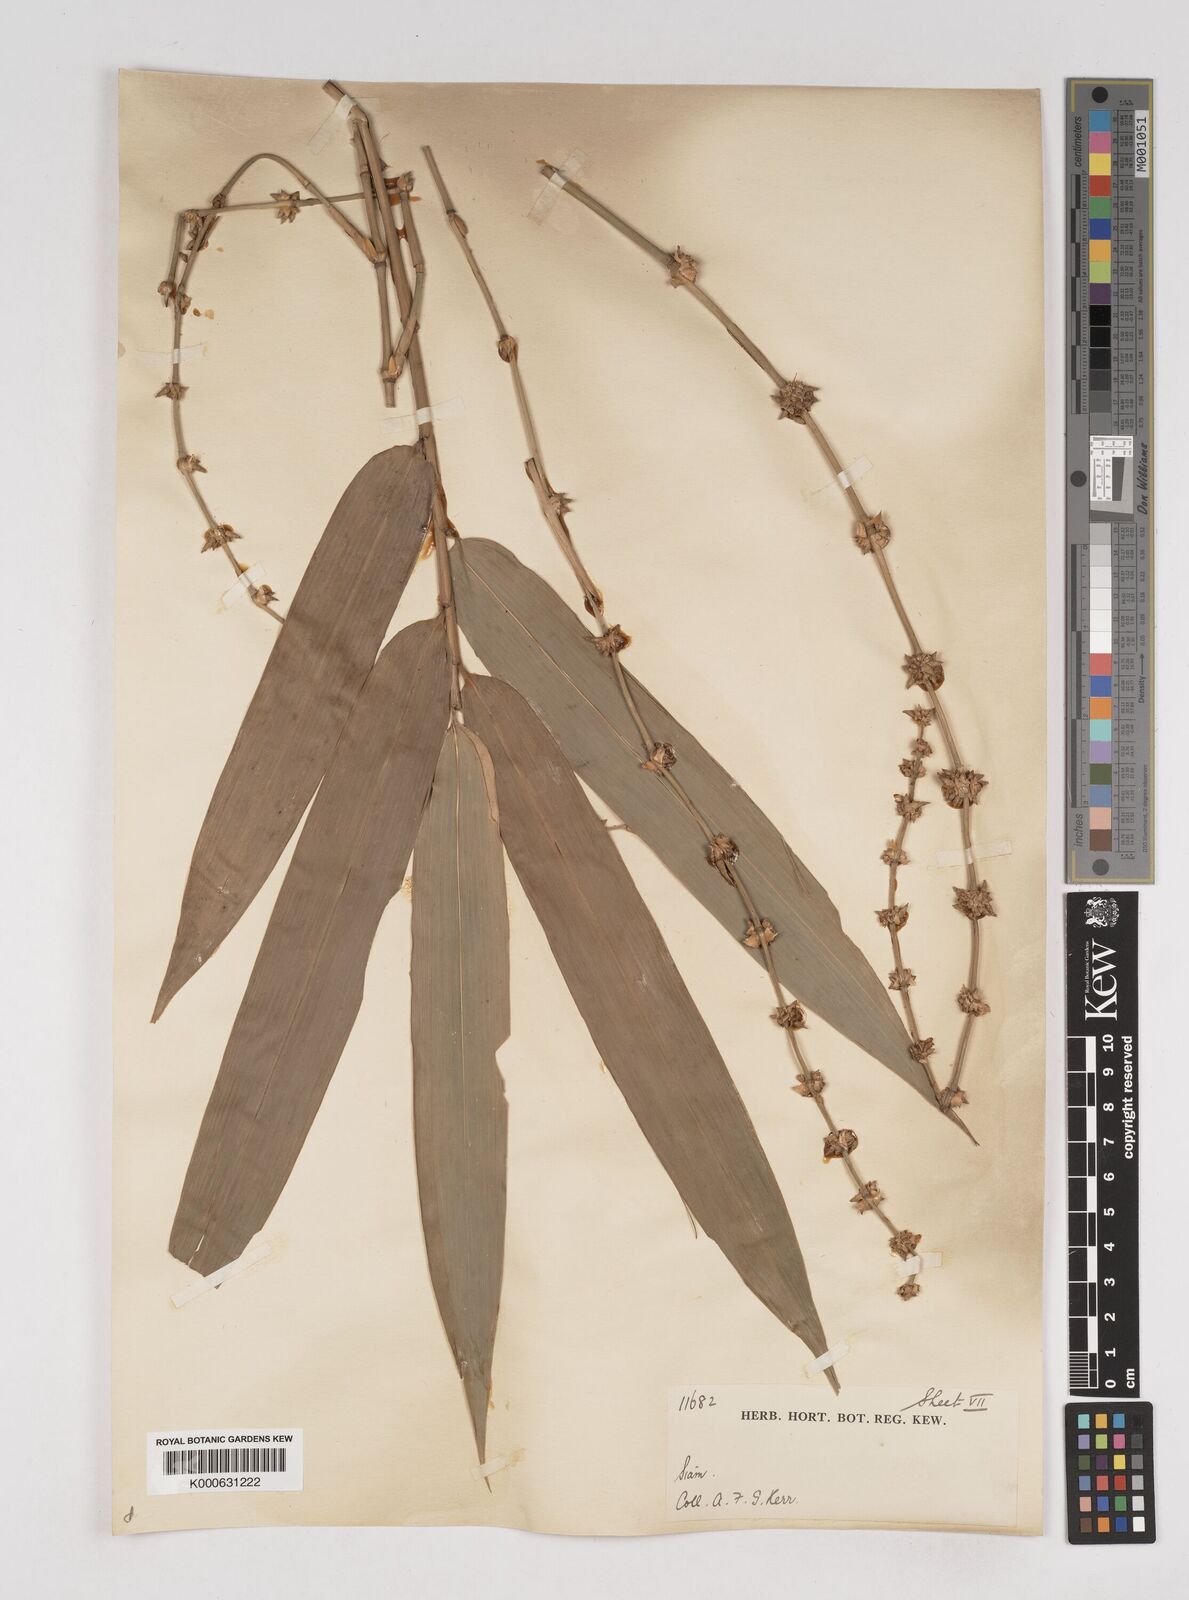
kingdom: Plantae
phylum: Tracheophyta
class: Liliopsida
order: Poales
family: Poaceae
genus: Gigantochloa
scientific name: Gigantochloa
